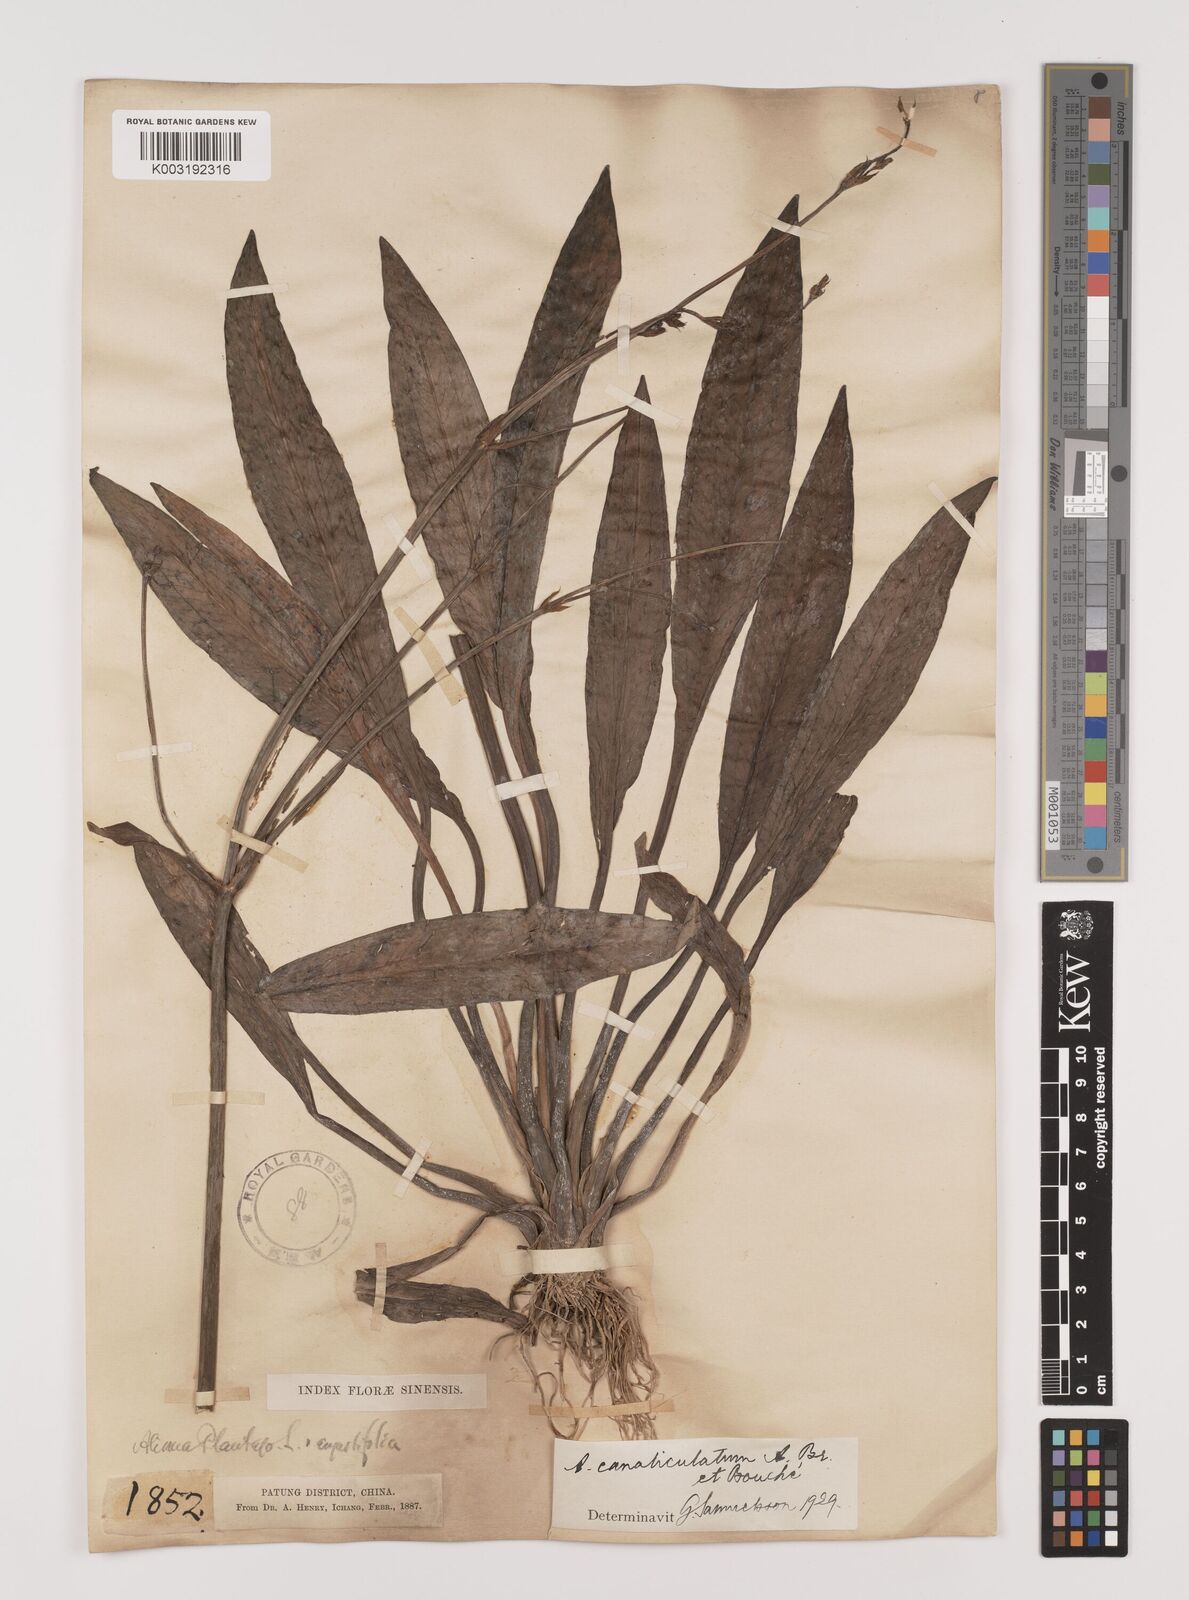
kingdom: Plantae
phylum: Tracheophyta
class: Liliopsida
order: Alismatales
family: Alismataceae
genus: Alisma
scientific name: Alisma canaliculatum
